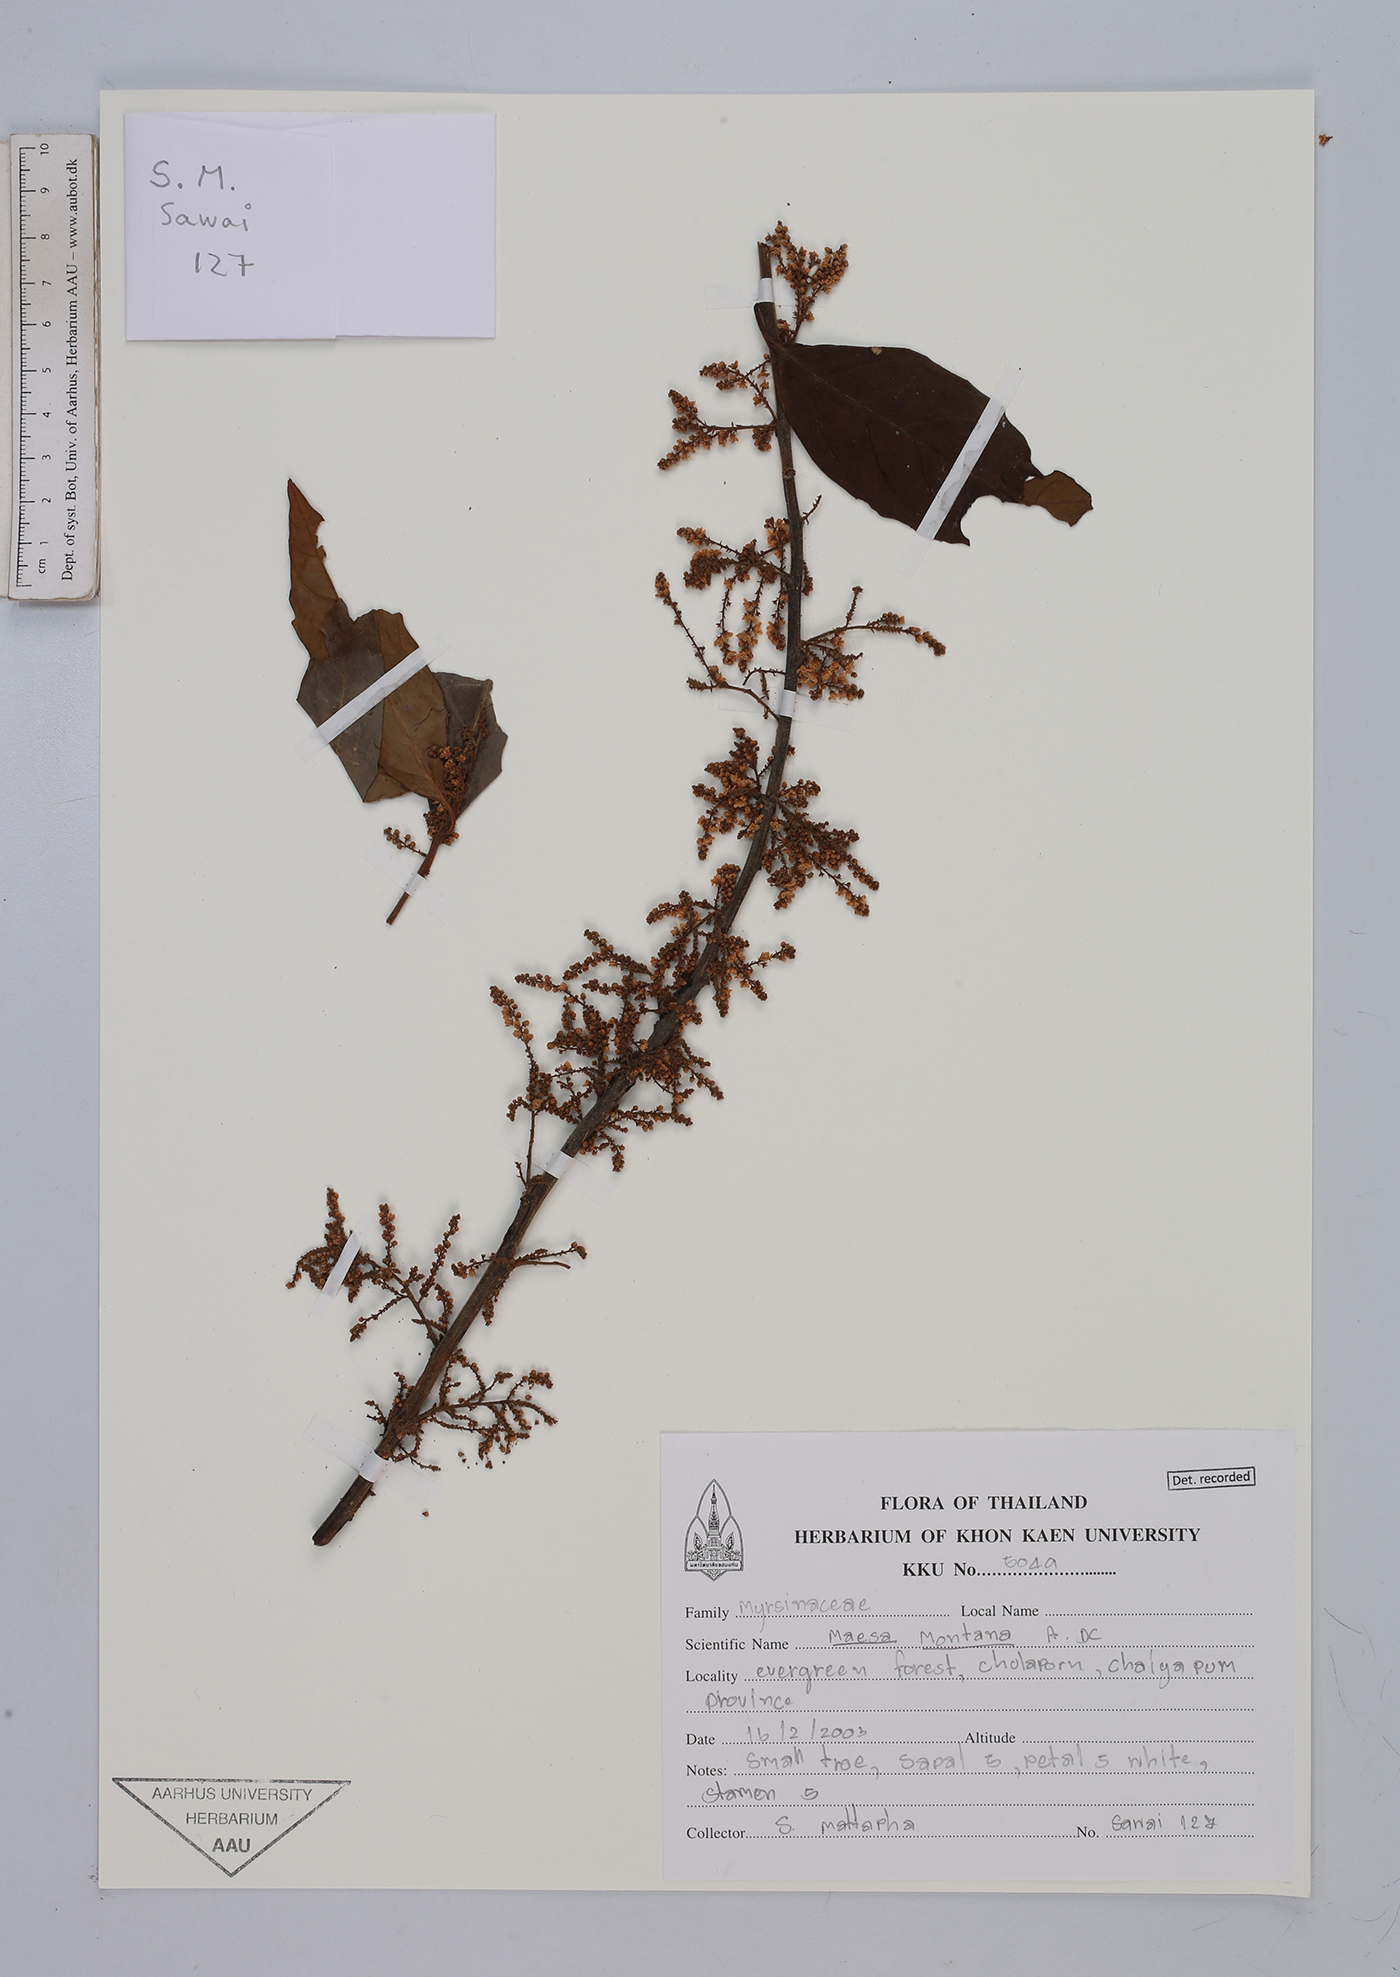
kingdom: Plantae
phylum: Tracheophyta
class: Magnoliopsida
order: Ericales
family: Primulaceae
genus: Maesa
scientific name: Maesa montana
